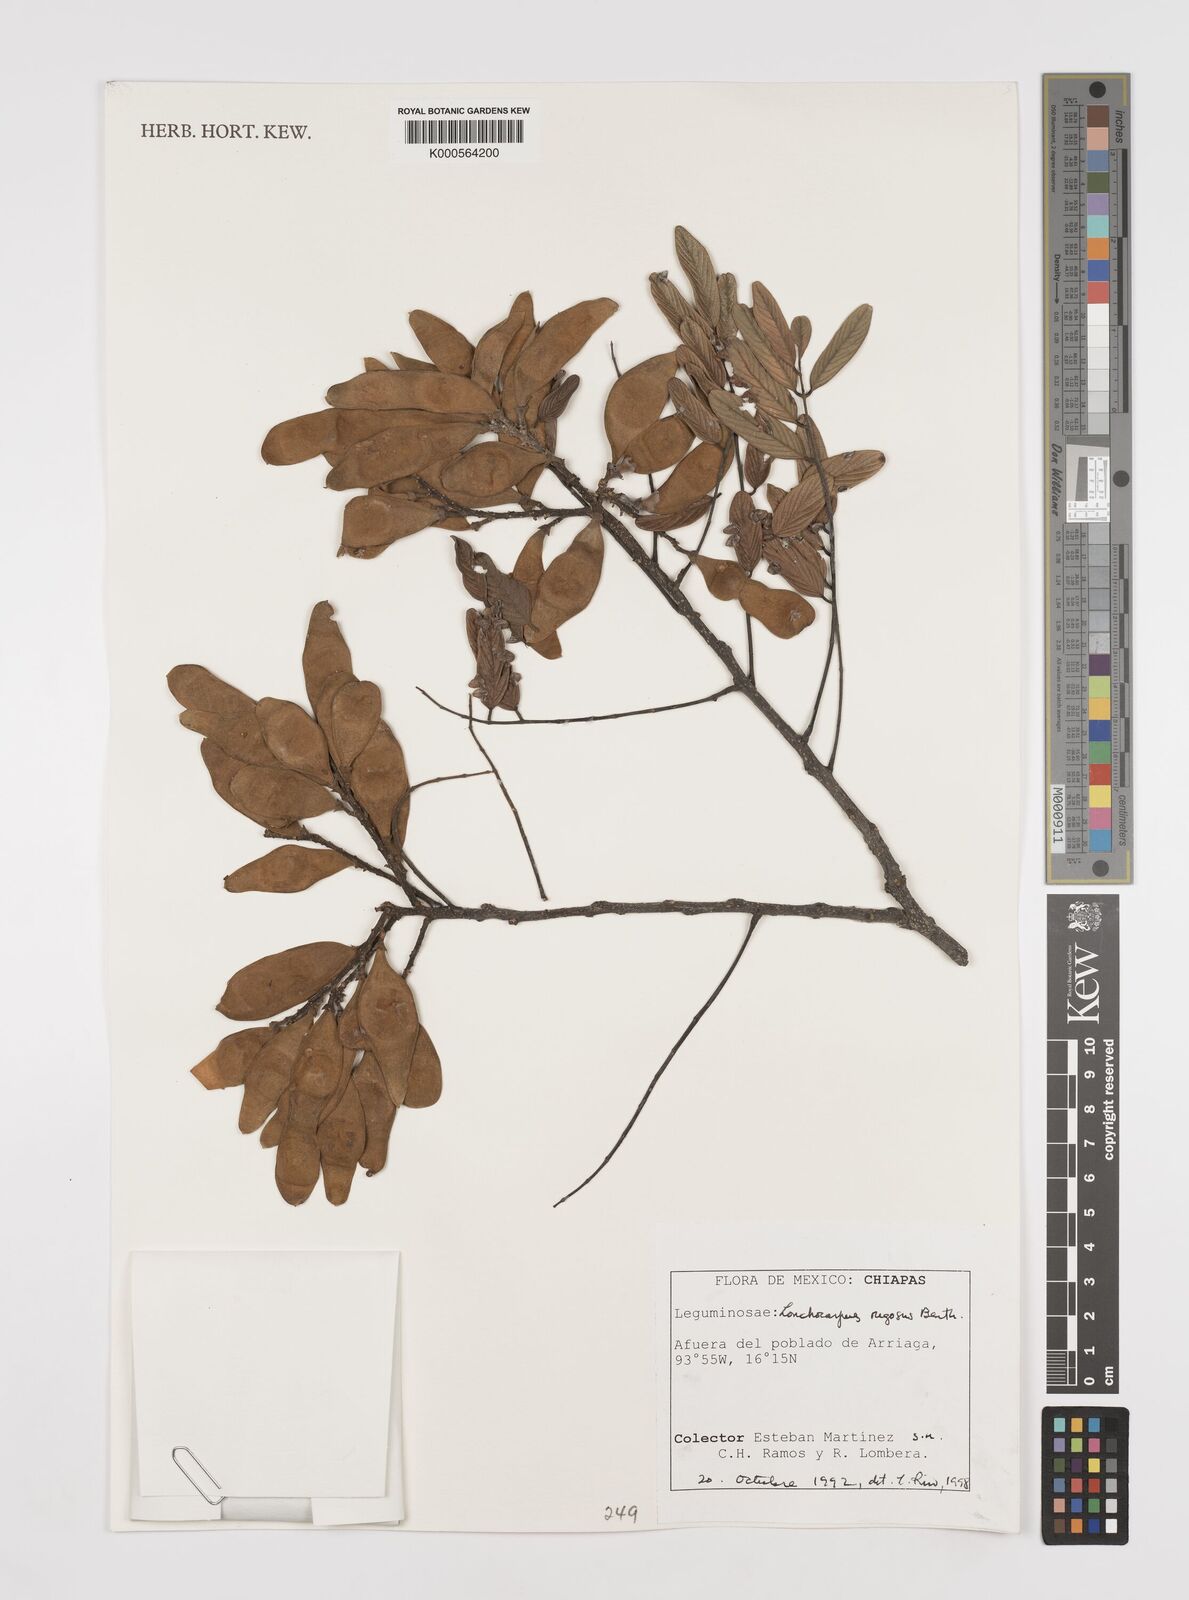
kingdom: Plantae
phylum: Tracheophyta
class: Magnoliopsida
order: Fabales
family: Fabaceae
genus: Lonchocarpus
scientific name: Lonchocarpus rugosus
